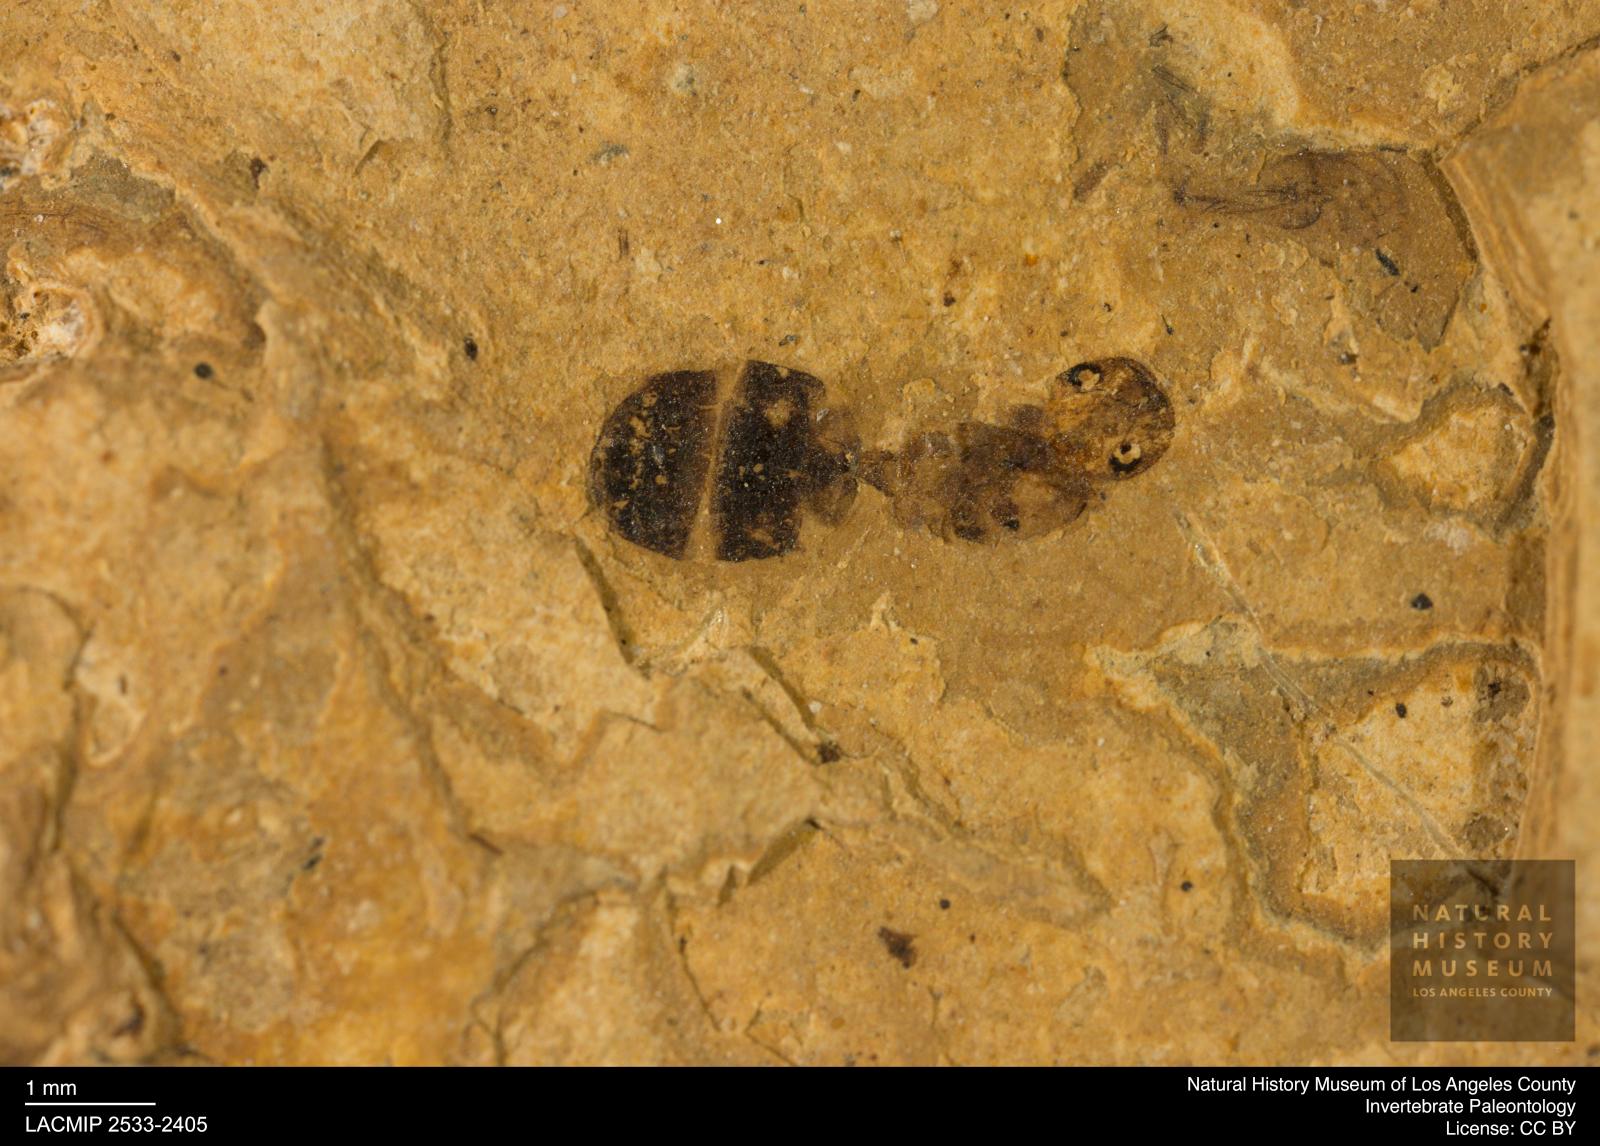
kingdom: Animalia
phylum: Arthropoda
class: Insecta
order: Hymenoptera
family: Formicidae
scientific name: Formicidae
